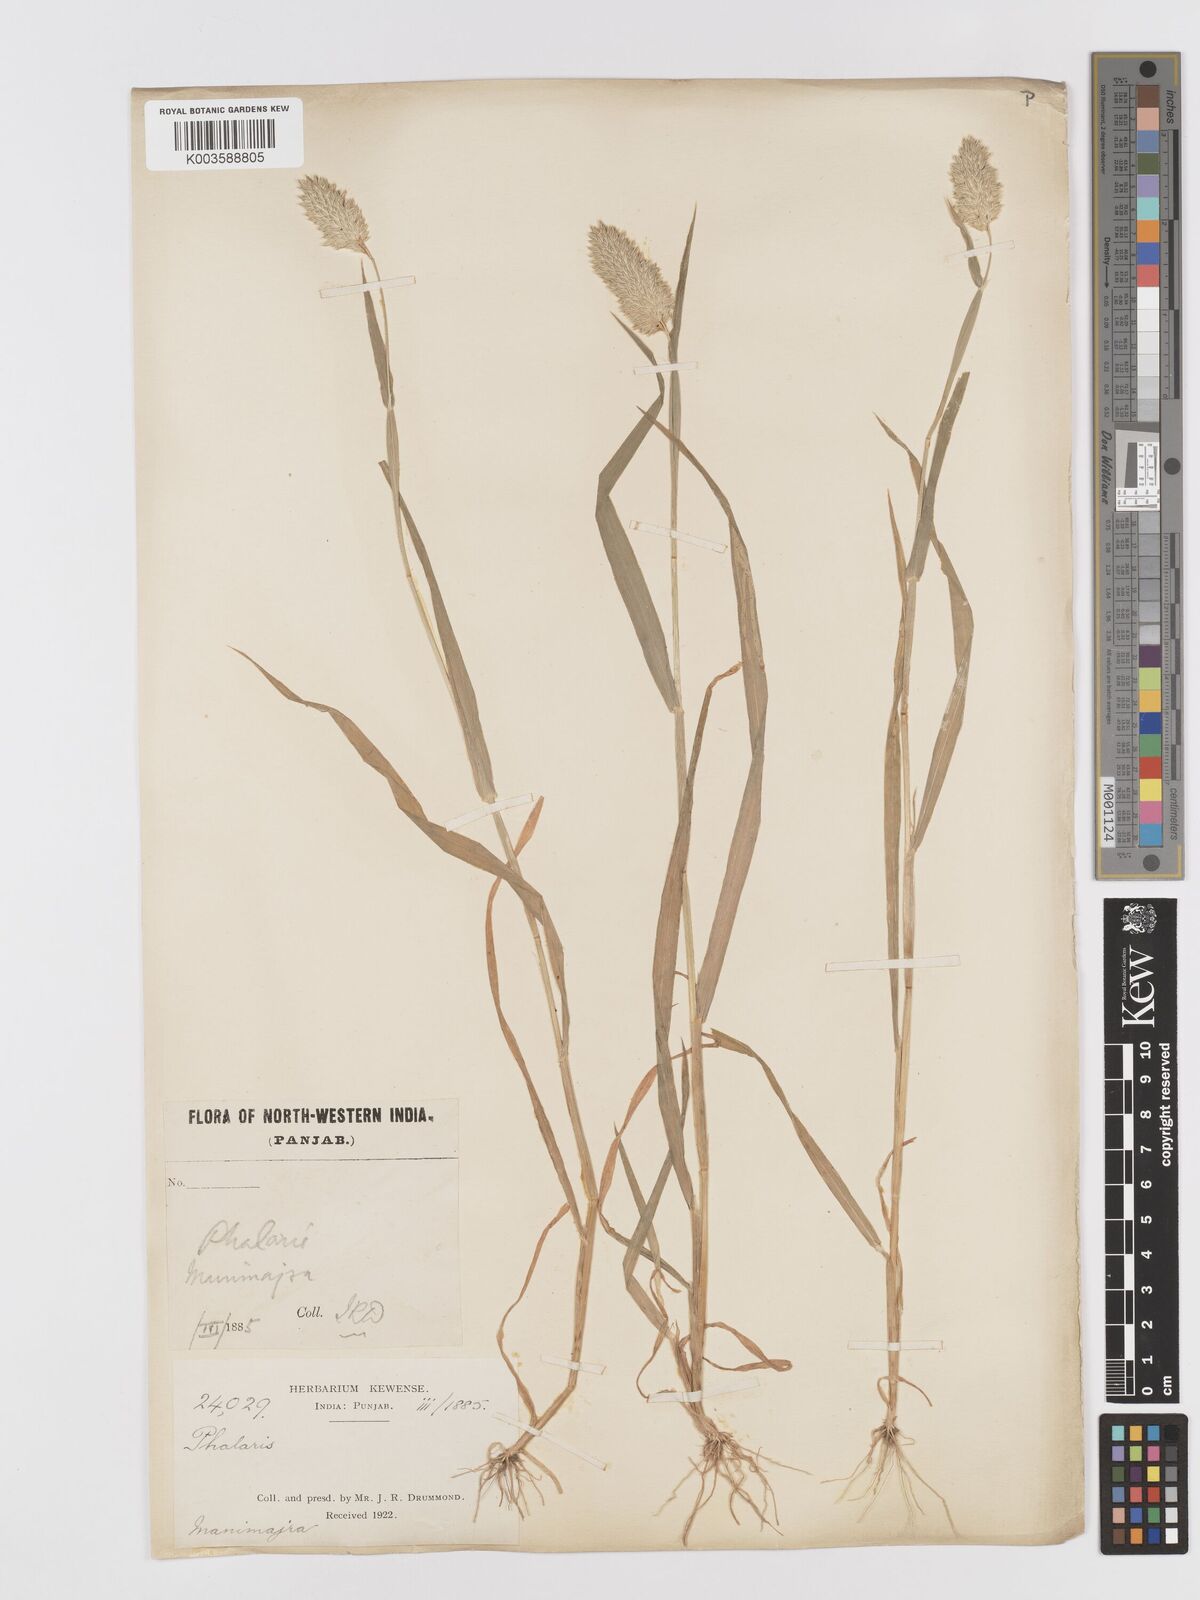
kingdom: Plantae
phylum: Tracheophyta
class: Liliopsida
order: Poales
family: Poaceae
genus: Phalaris
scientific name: Phalaris minor
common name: Littleseed canarygrass
